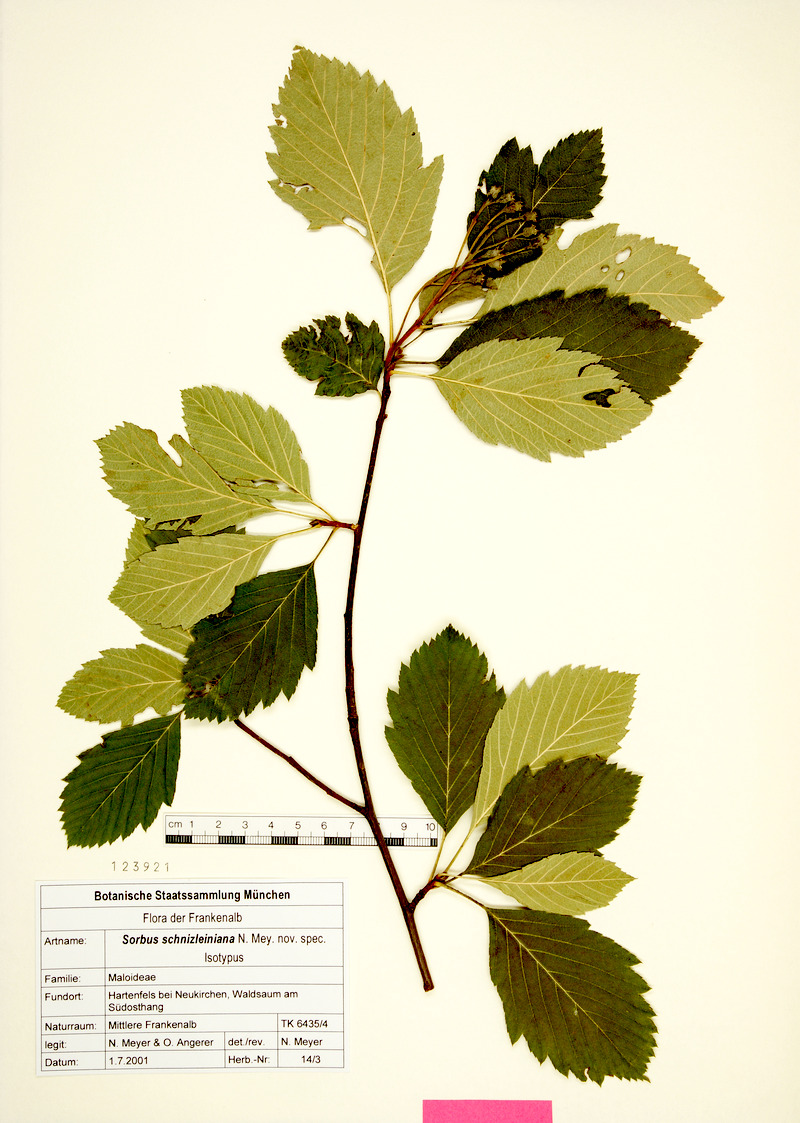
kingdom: Plantae
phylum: Tracheophyta
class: Magnoliopsida
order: Rosales
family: Rosaceae
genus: Karpatiosorbus
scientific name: Karpatiosorbus schnizleiniana
